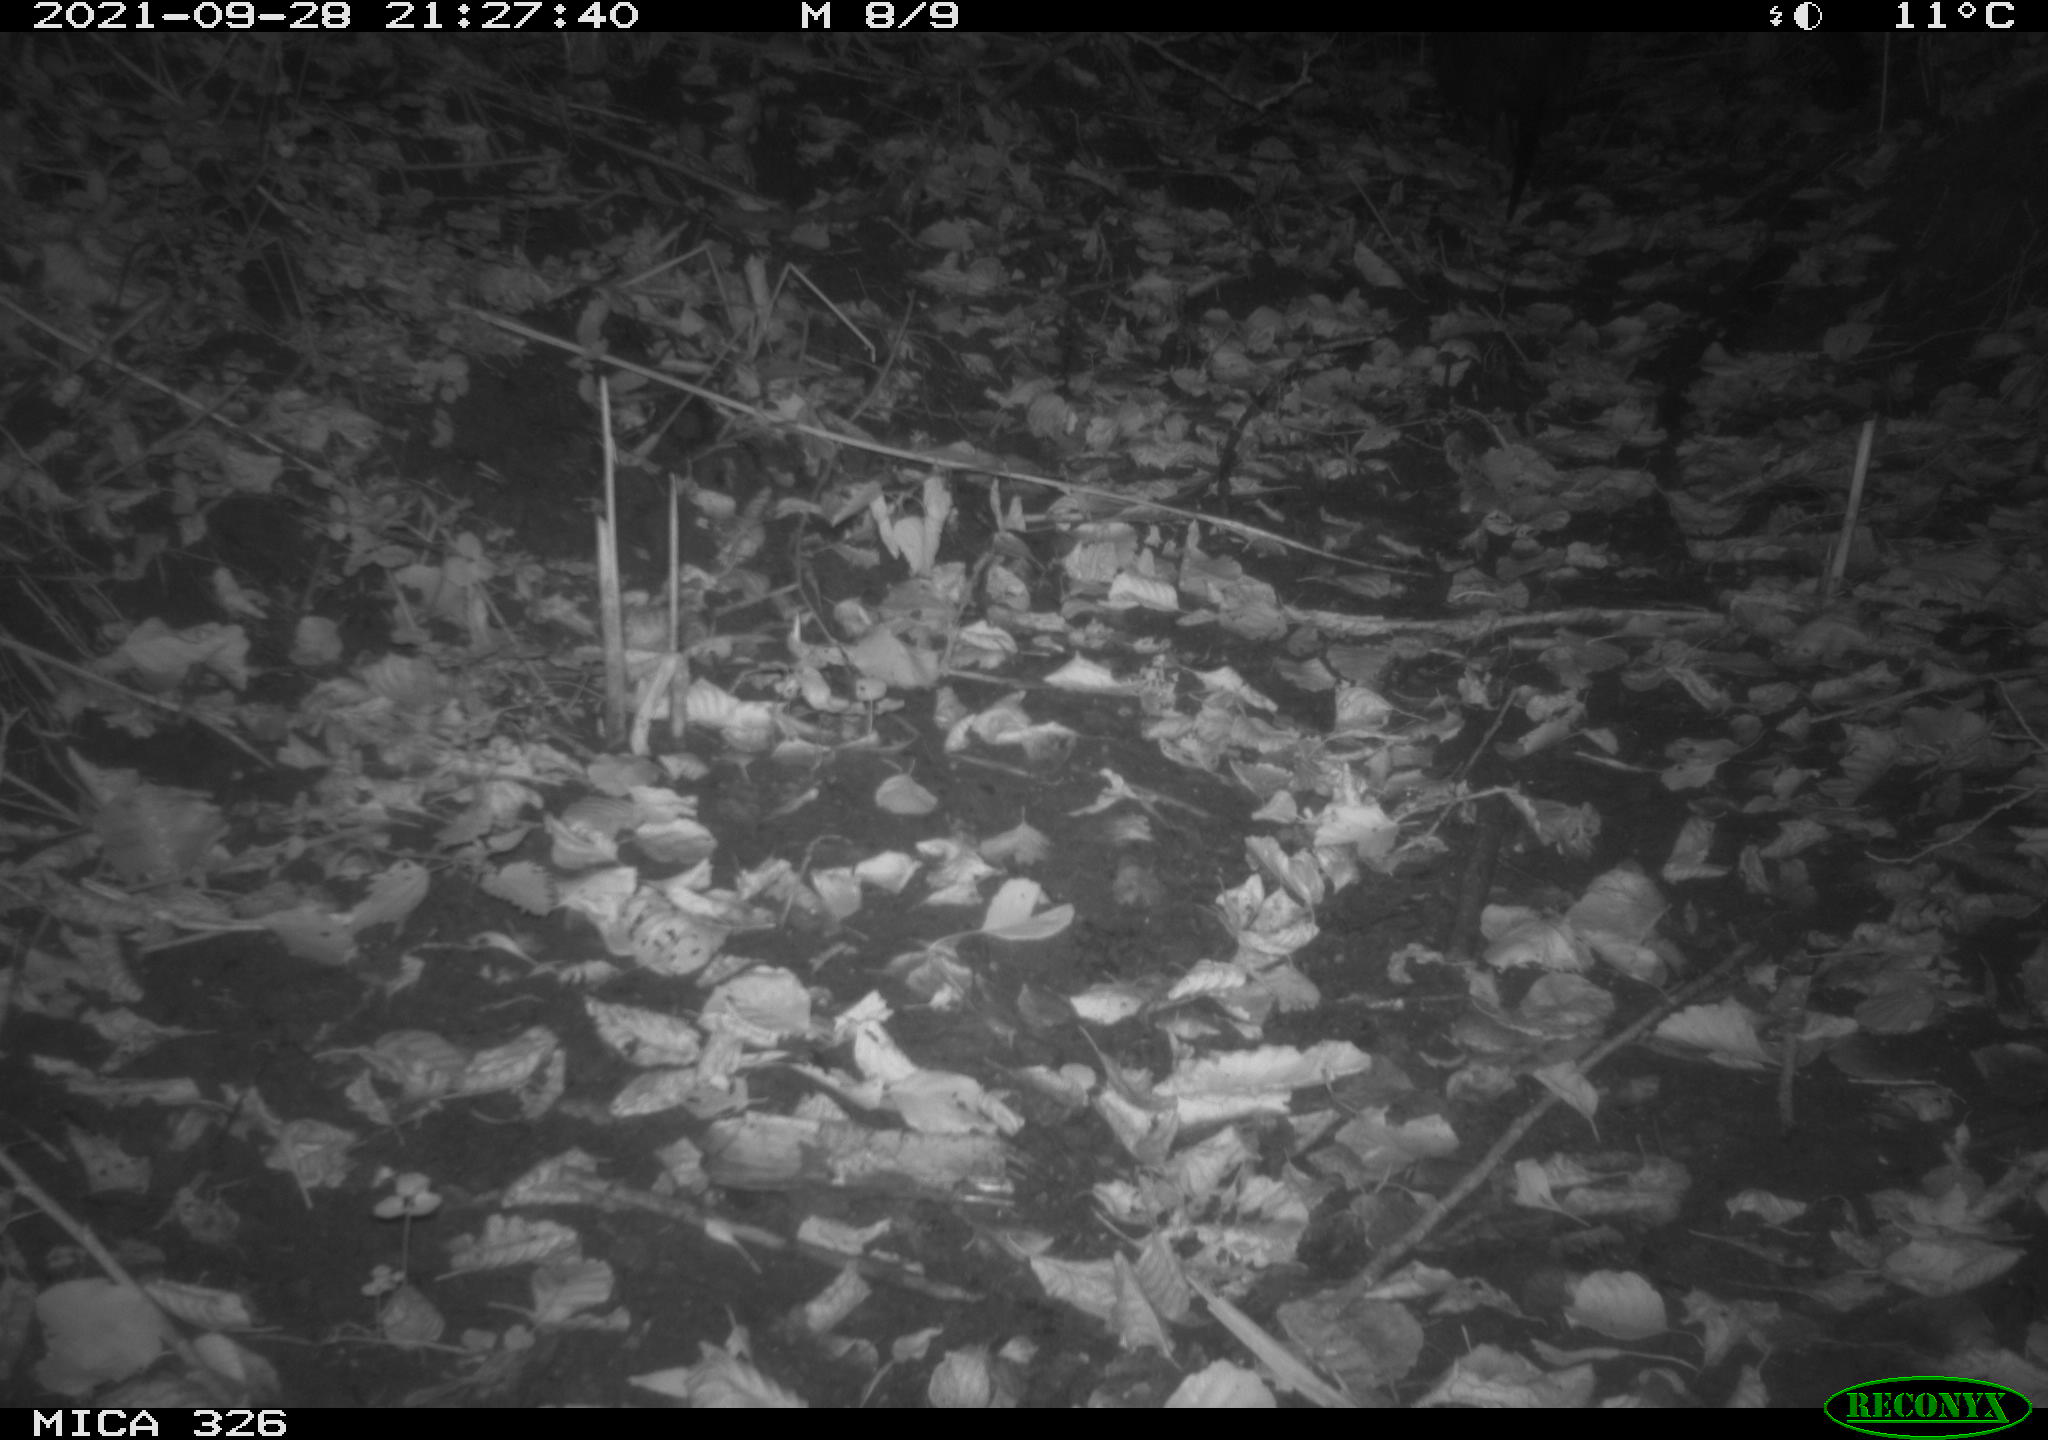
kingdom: Animalia
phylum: Chordata
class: Mammalia
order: Rodentia
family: Myocastoridae
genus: Myocastor
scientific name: Myocastor coypus
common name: Coypu
